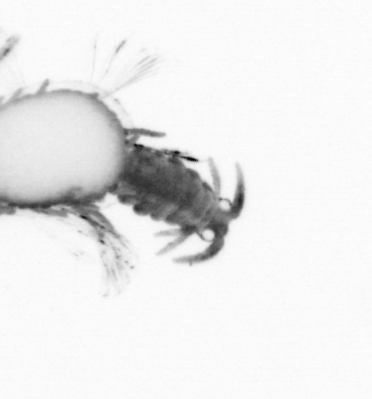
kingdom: Animalia
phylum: Annelida
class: Polychaeta
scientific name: Polychaeta
